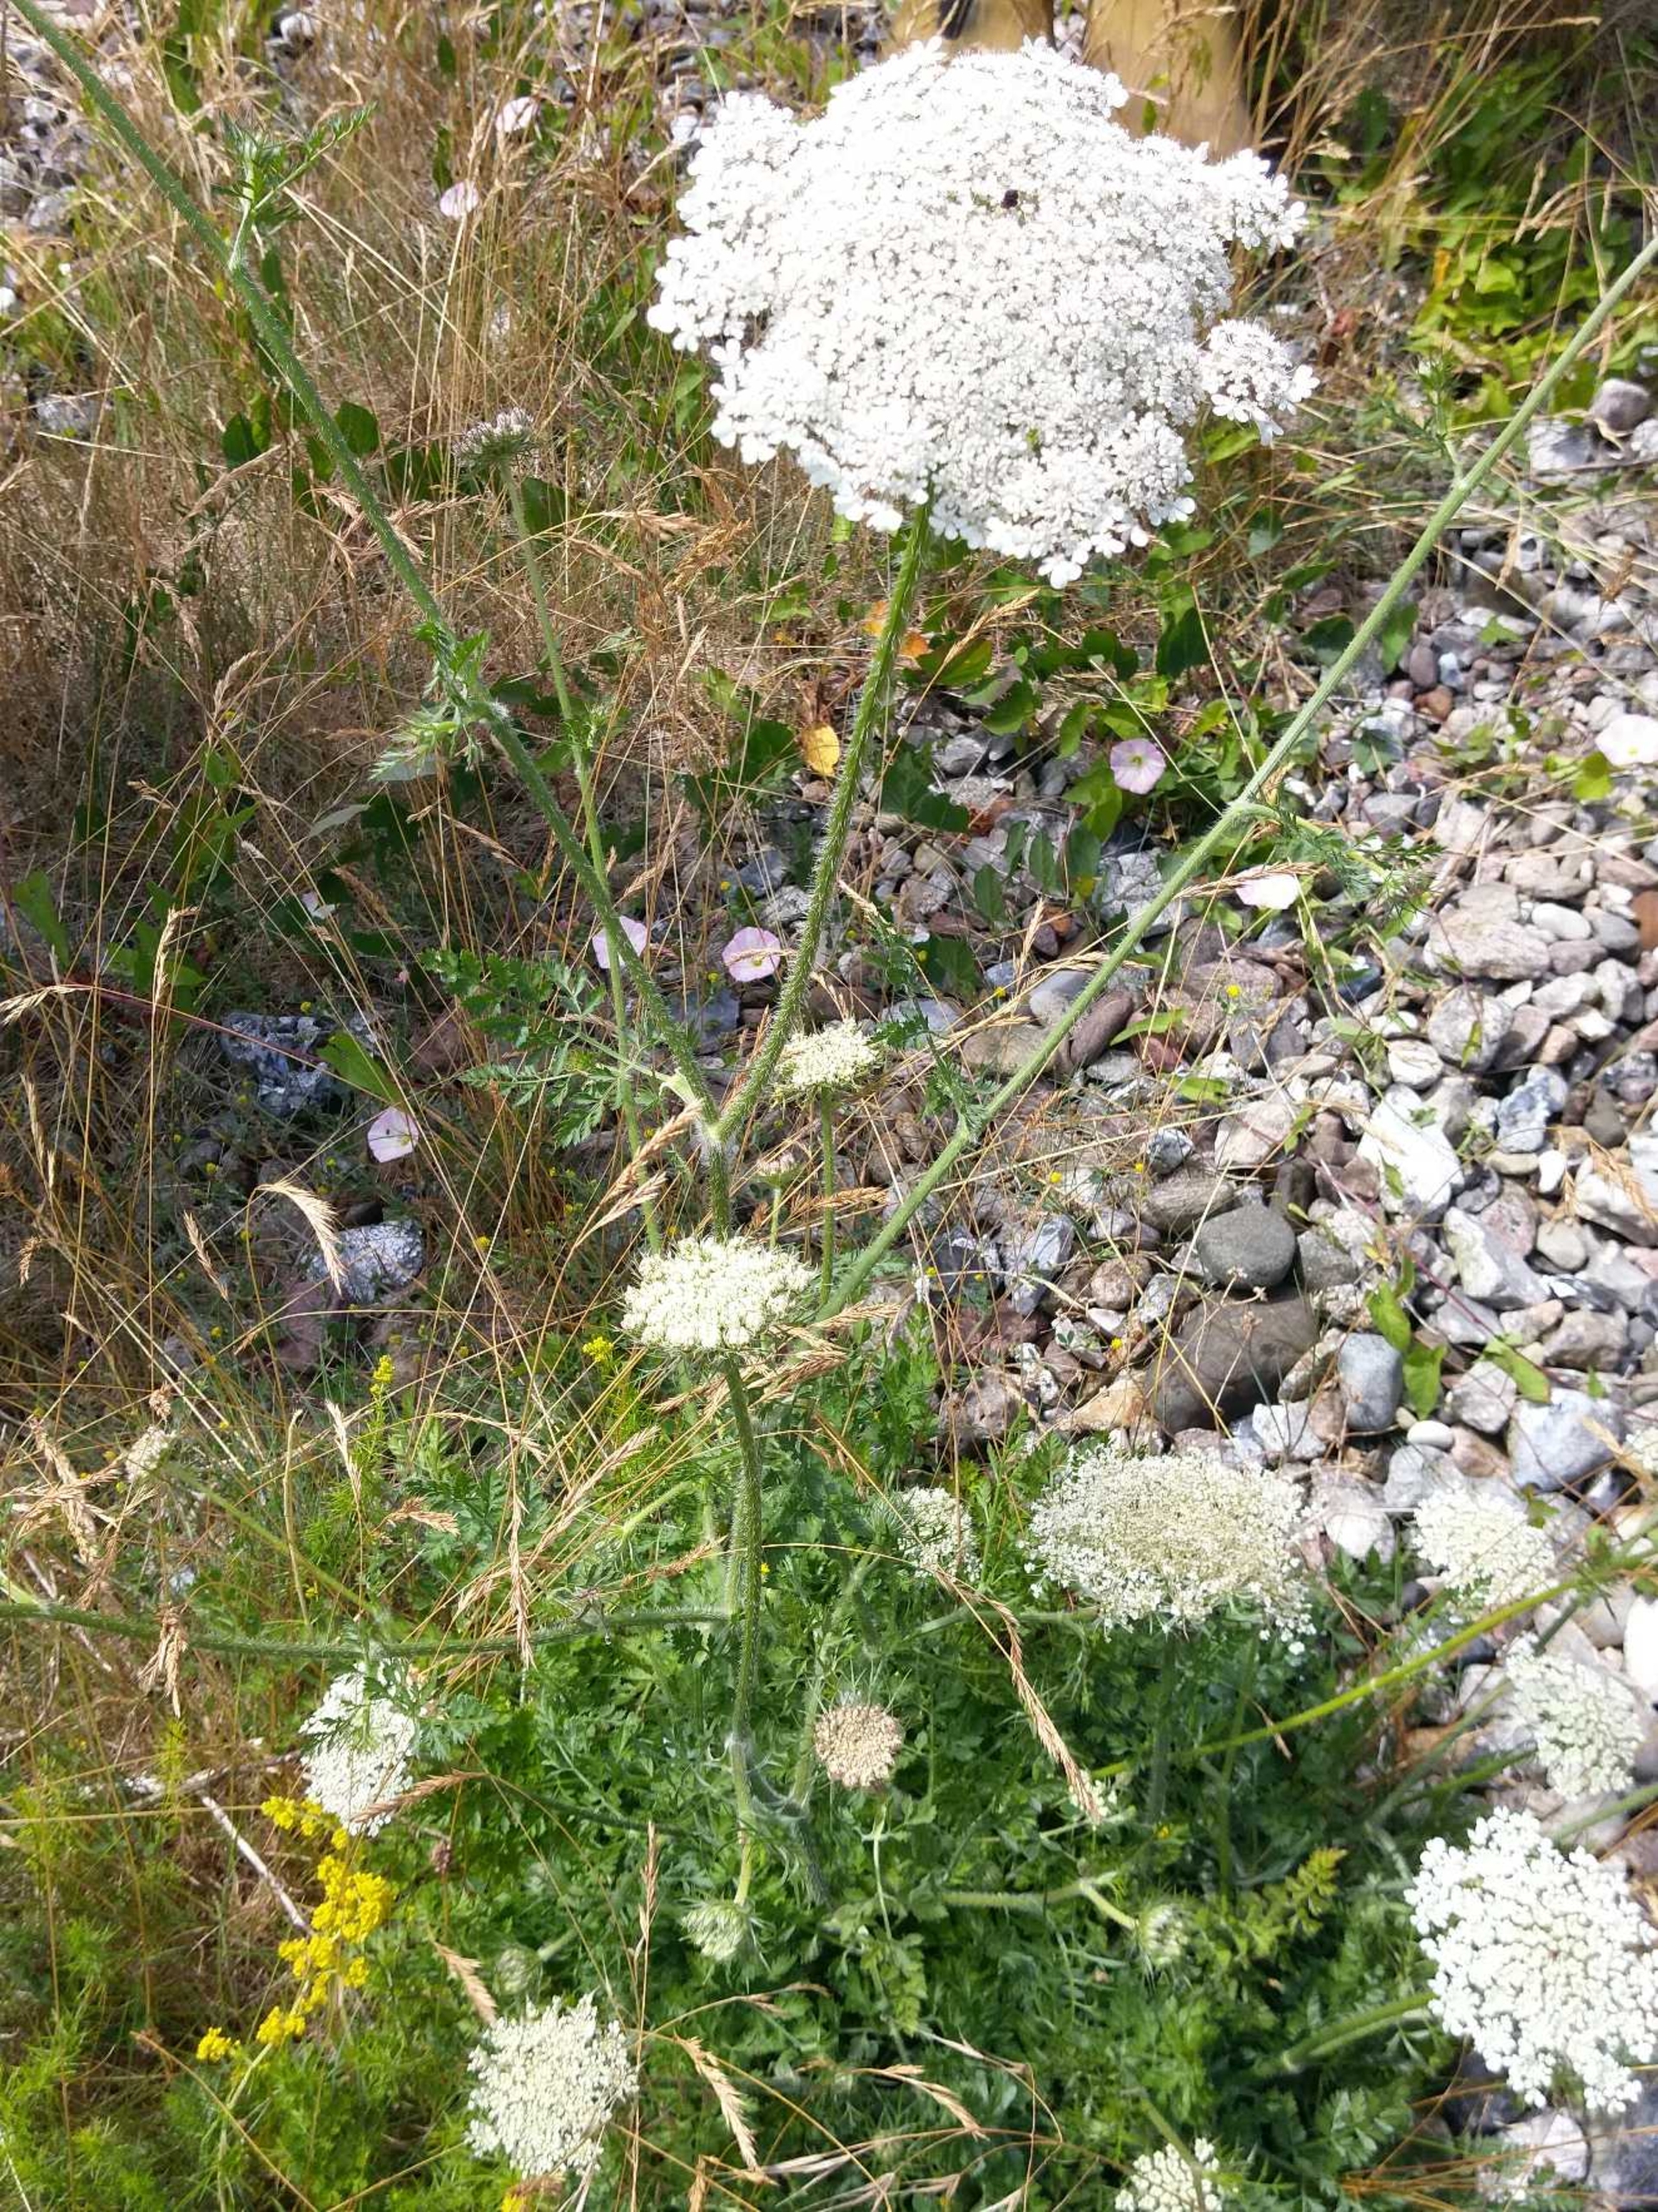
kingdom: Plantae
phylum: Tracheophyta
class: Magnoliopsida
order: Apiales
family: Apiaceae
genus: Daucus
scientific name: Daucus carota
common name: Vild gulerod
